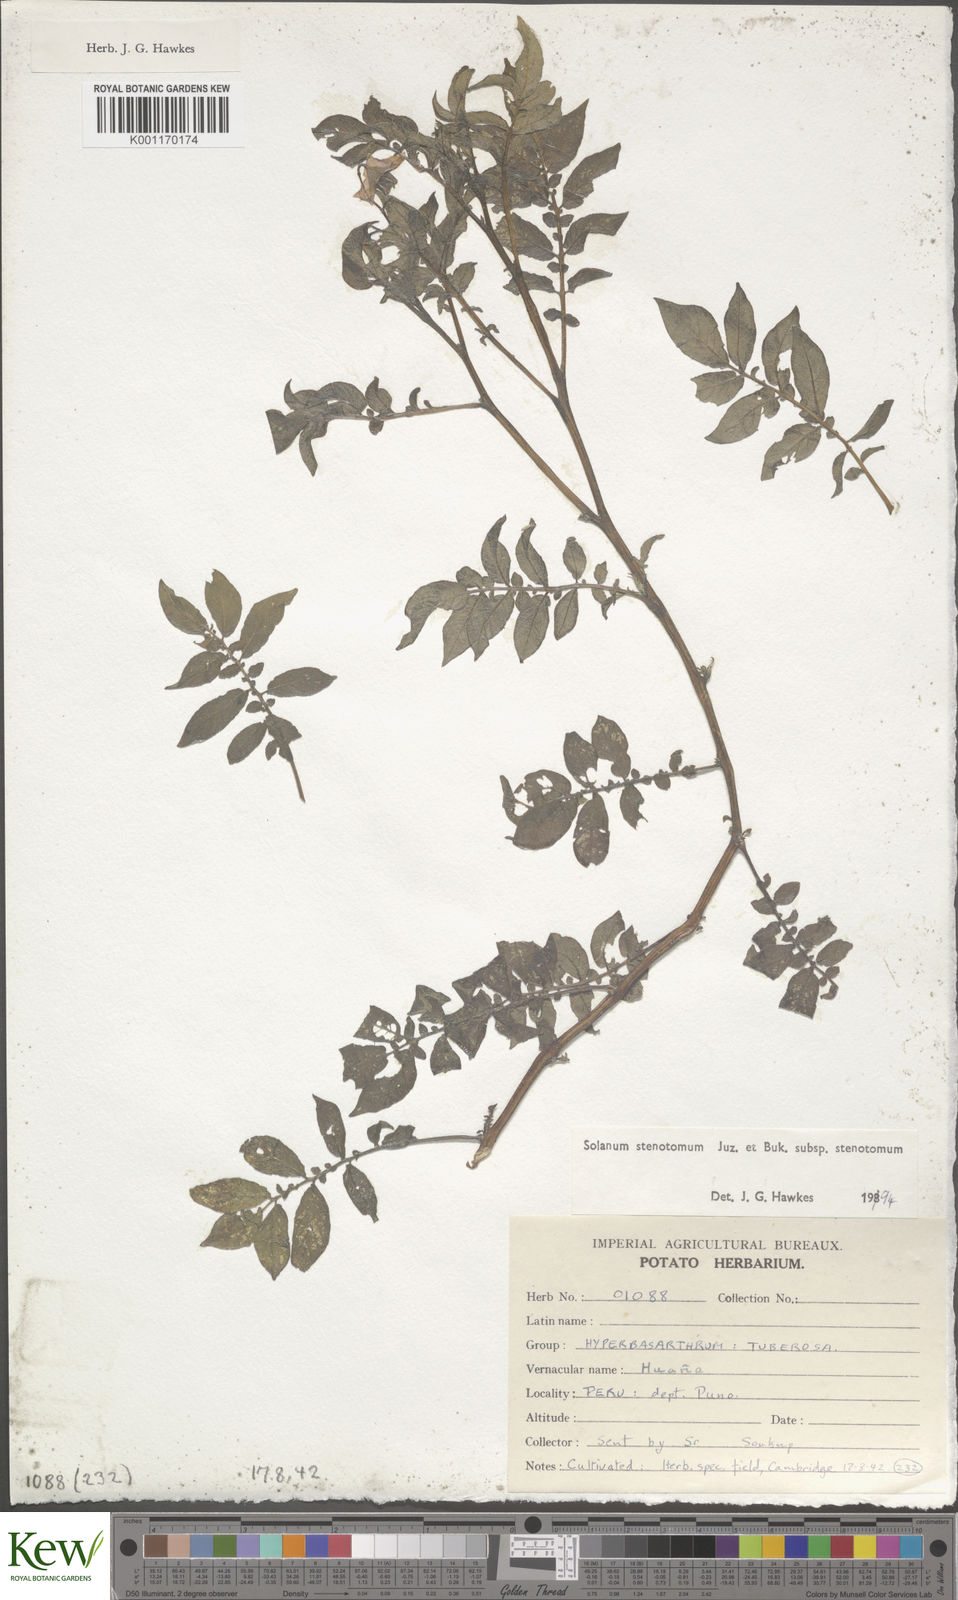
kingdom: Plantae
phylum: Tracheophyta
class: Magnoliopsida
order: Solanales
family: Solanaceae
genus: Solanum
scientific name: Solanum tuberosum
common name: Potato
